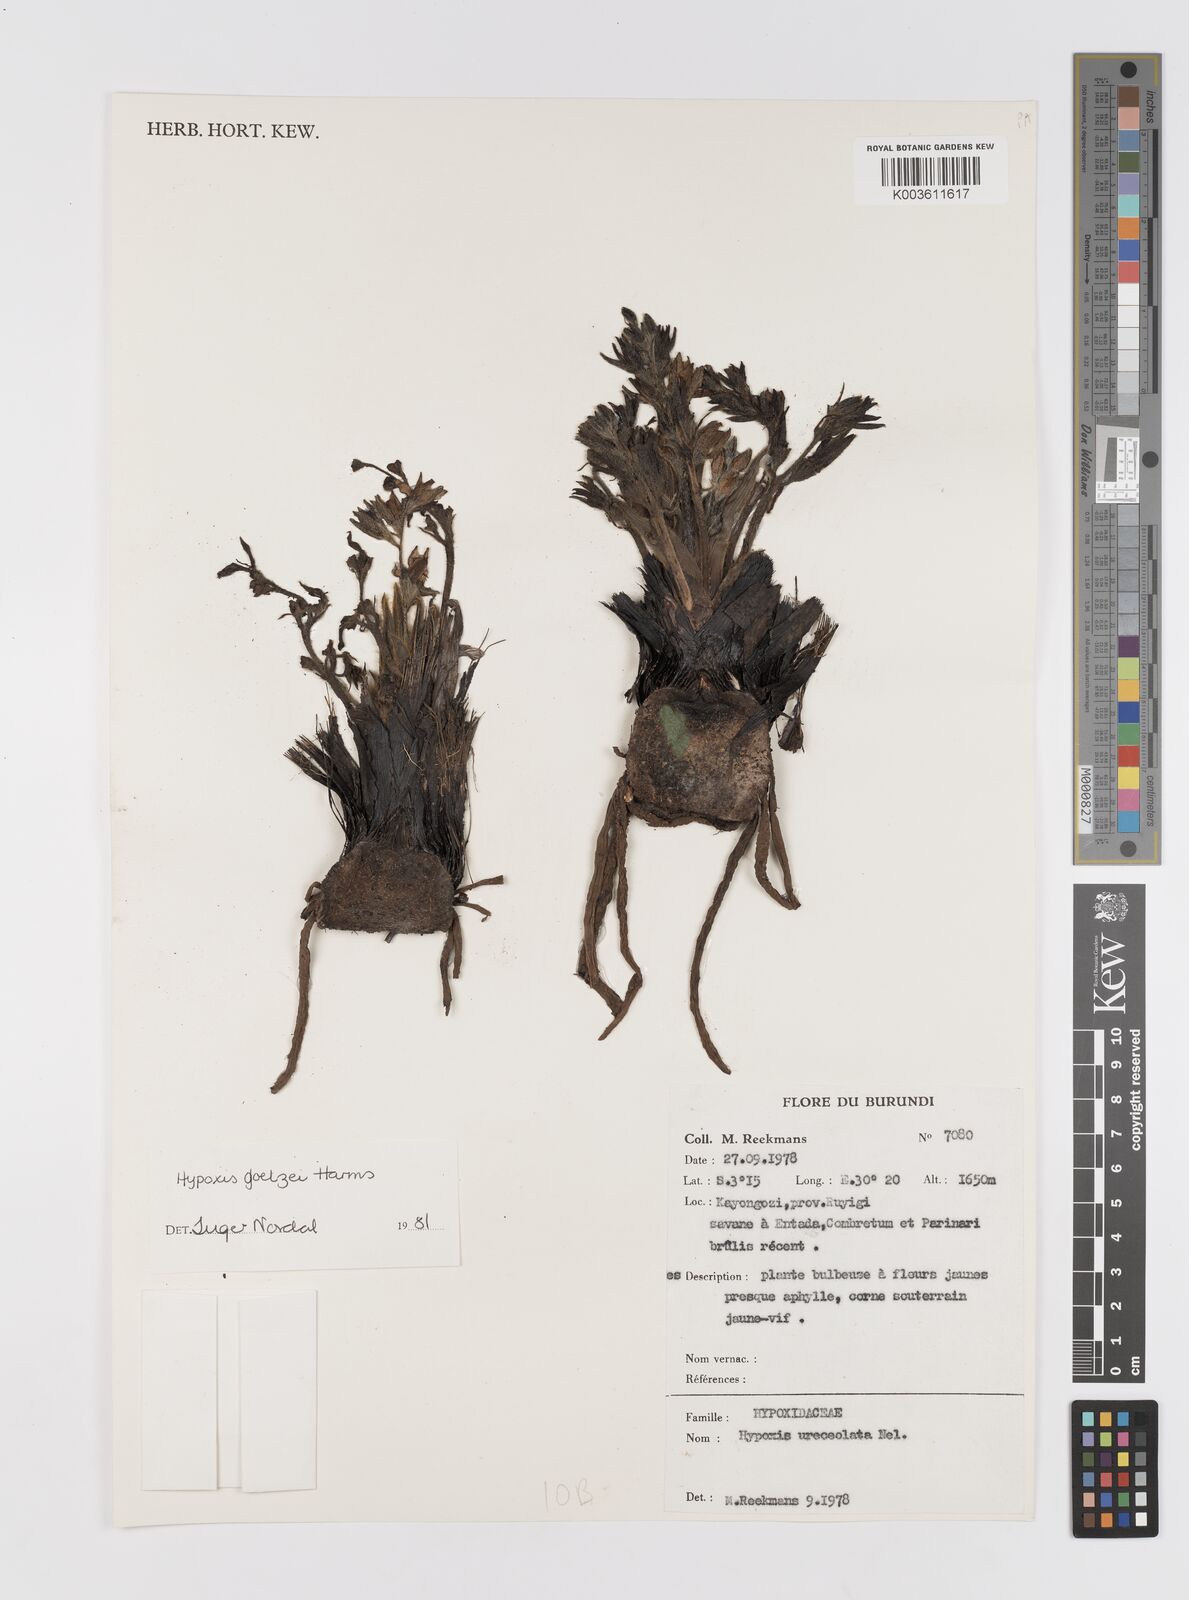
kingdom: Plantae
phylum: Tracheophyta
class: Liliopsida
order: Asparagales
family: Hypoxidaceae
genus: Hypoxis
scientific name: Hypoxis goetzei
